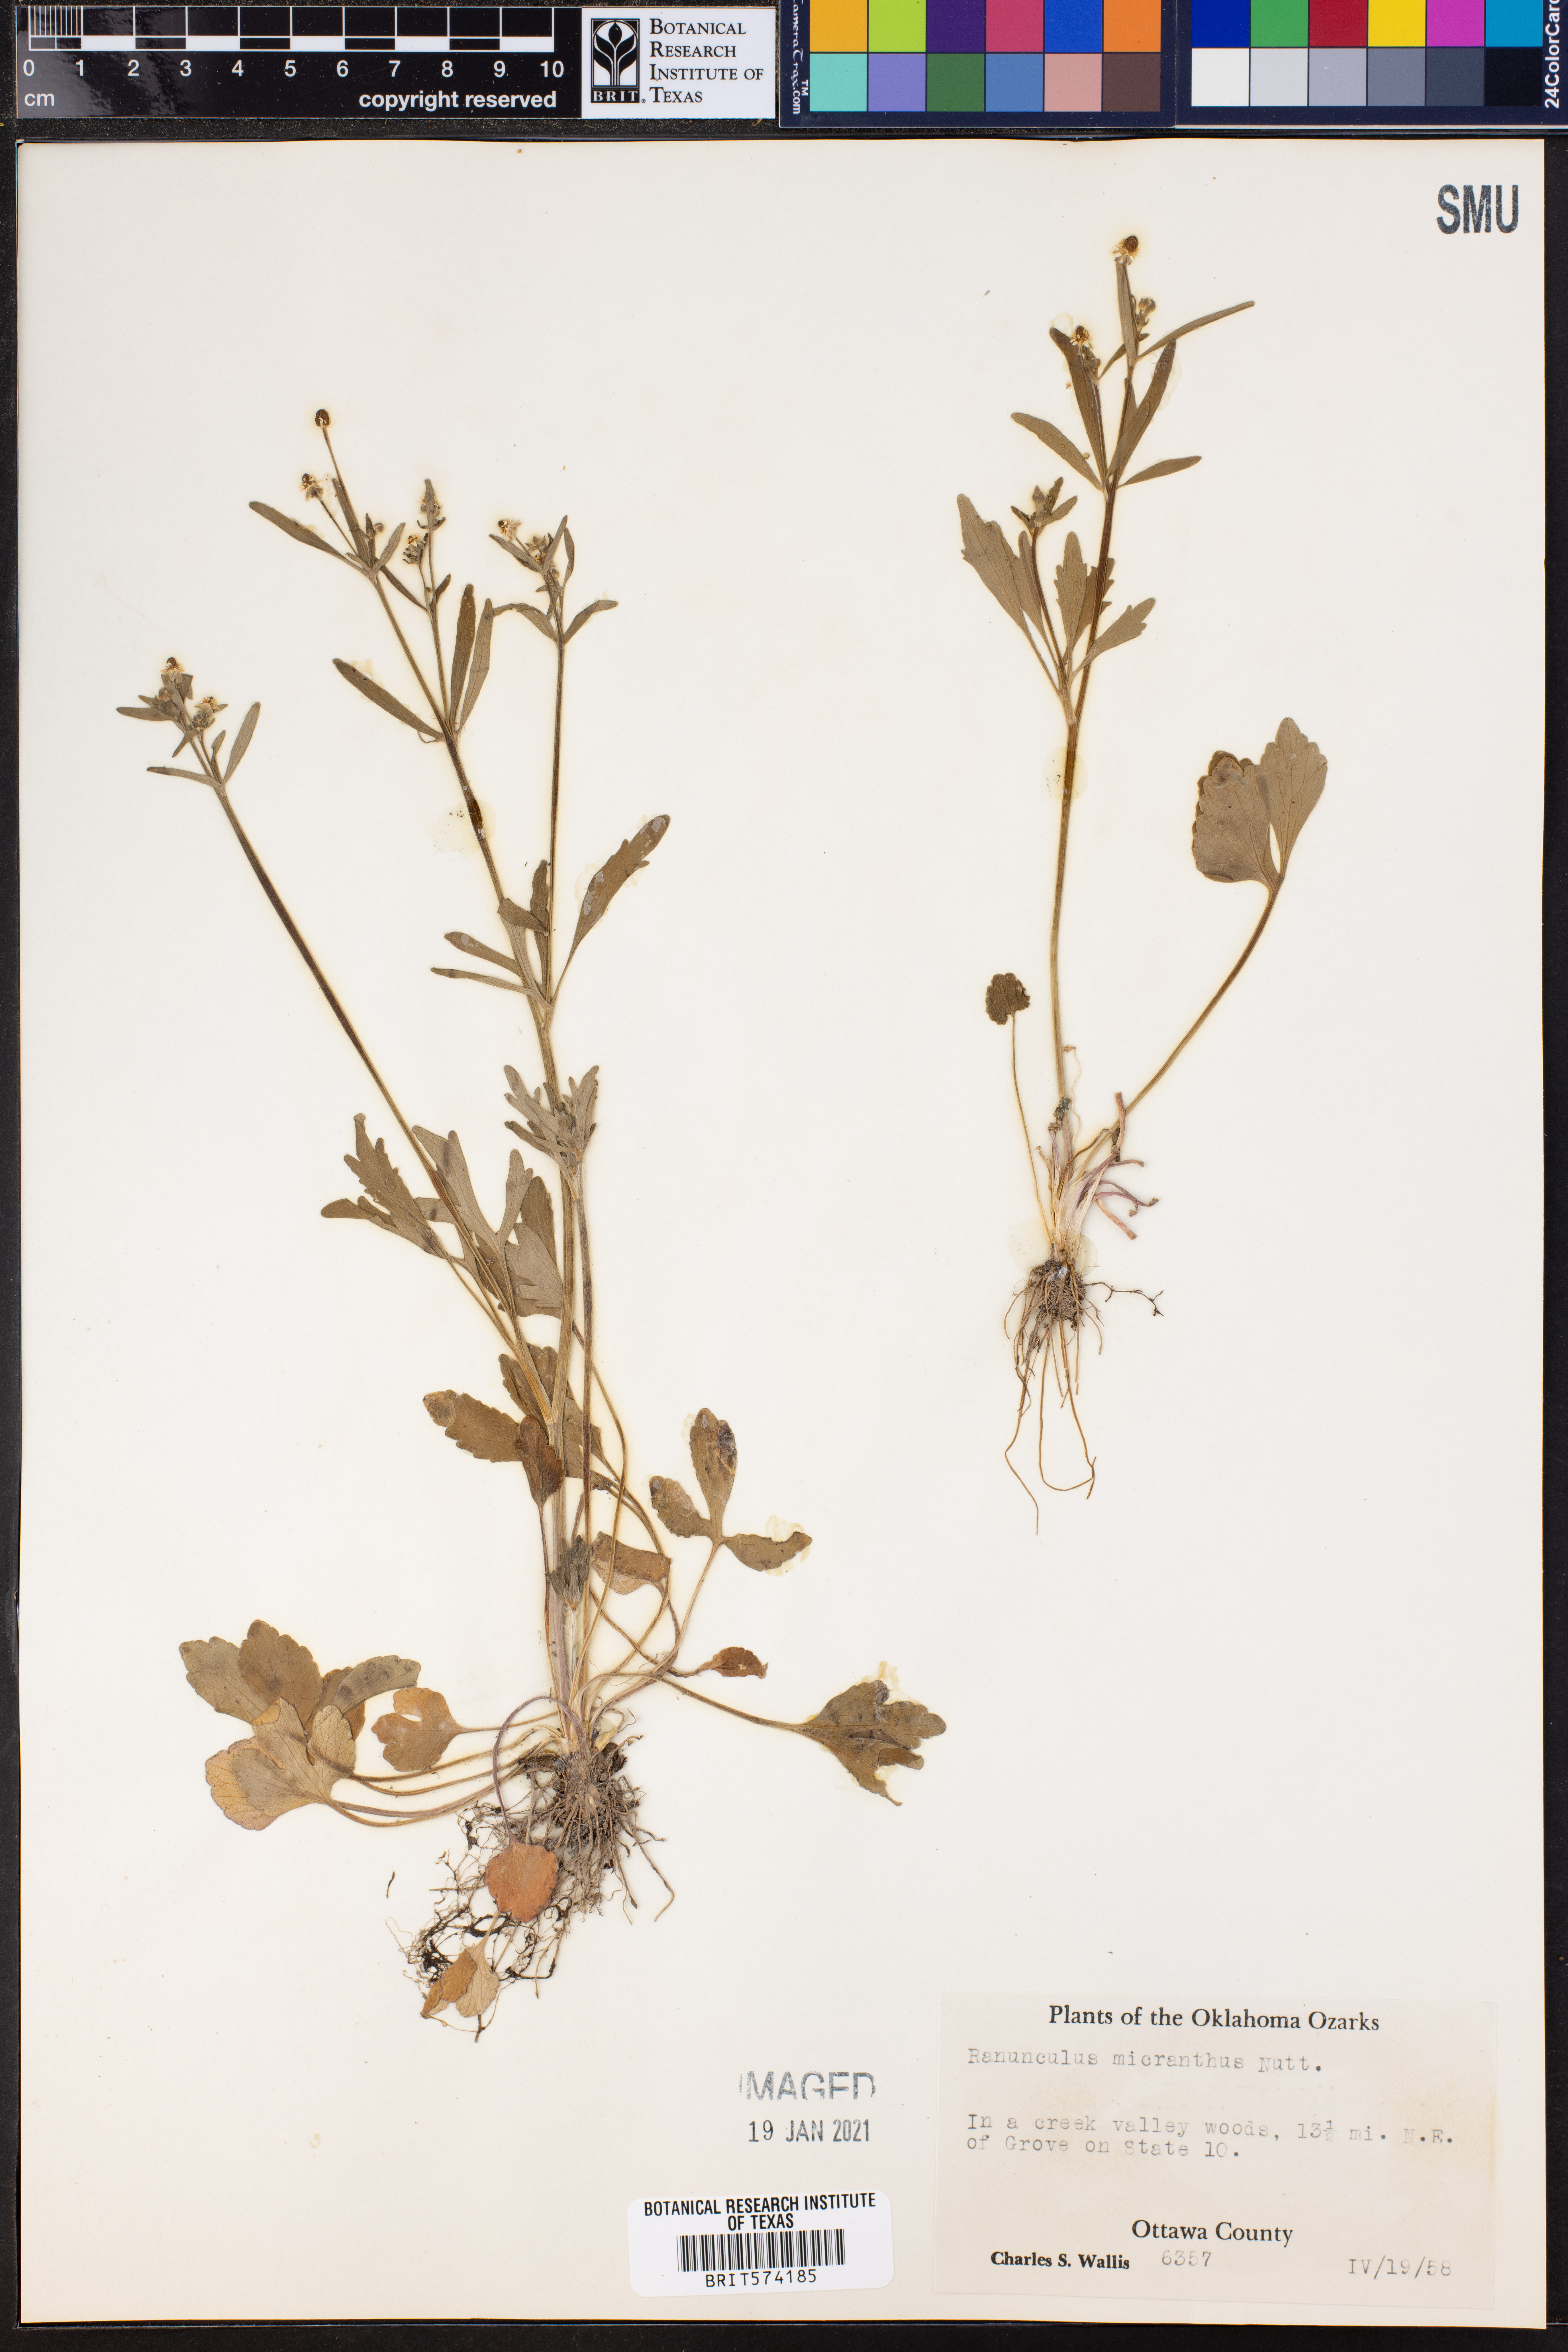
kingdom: Plantae
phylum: Tracheophyta
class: Magnoliopsida
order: Ranunculales
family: Ranunculaceae
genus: Ranunculus
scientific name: Ranunculus micranthus
